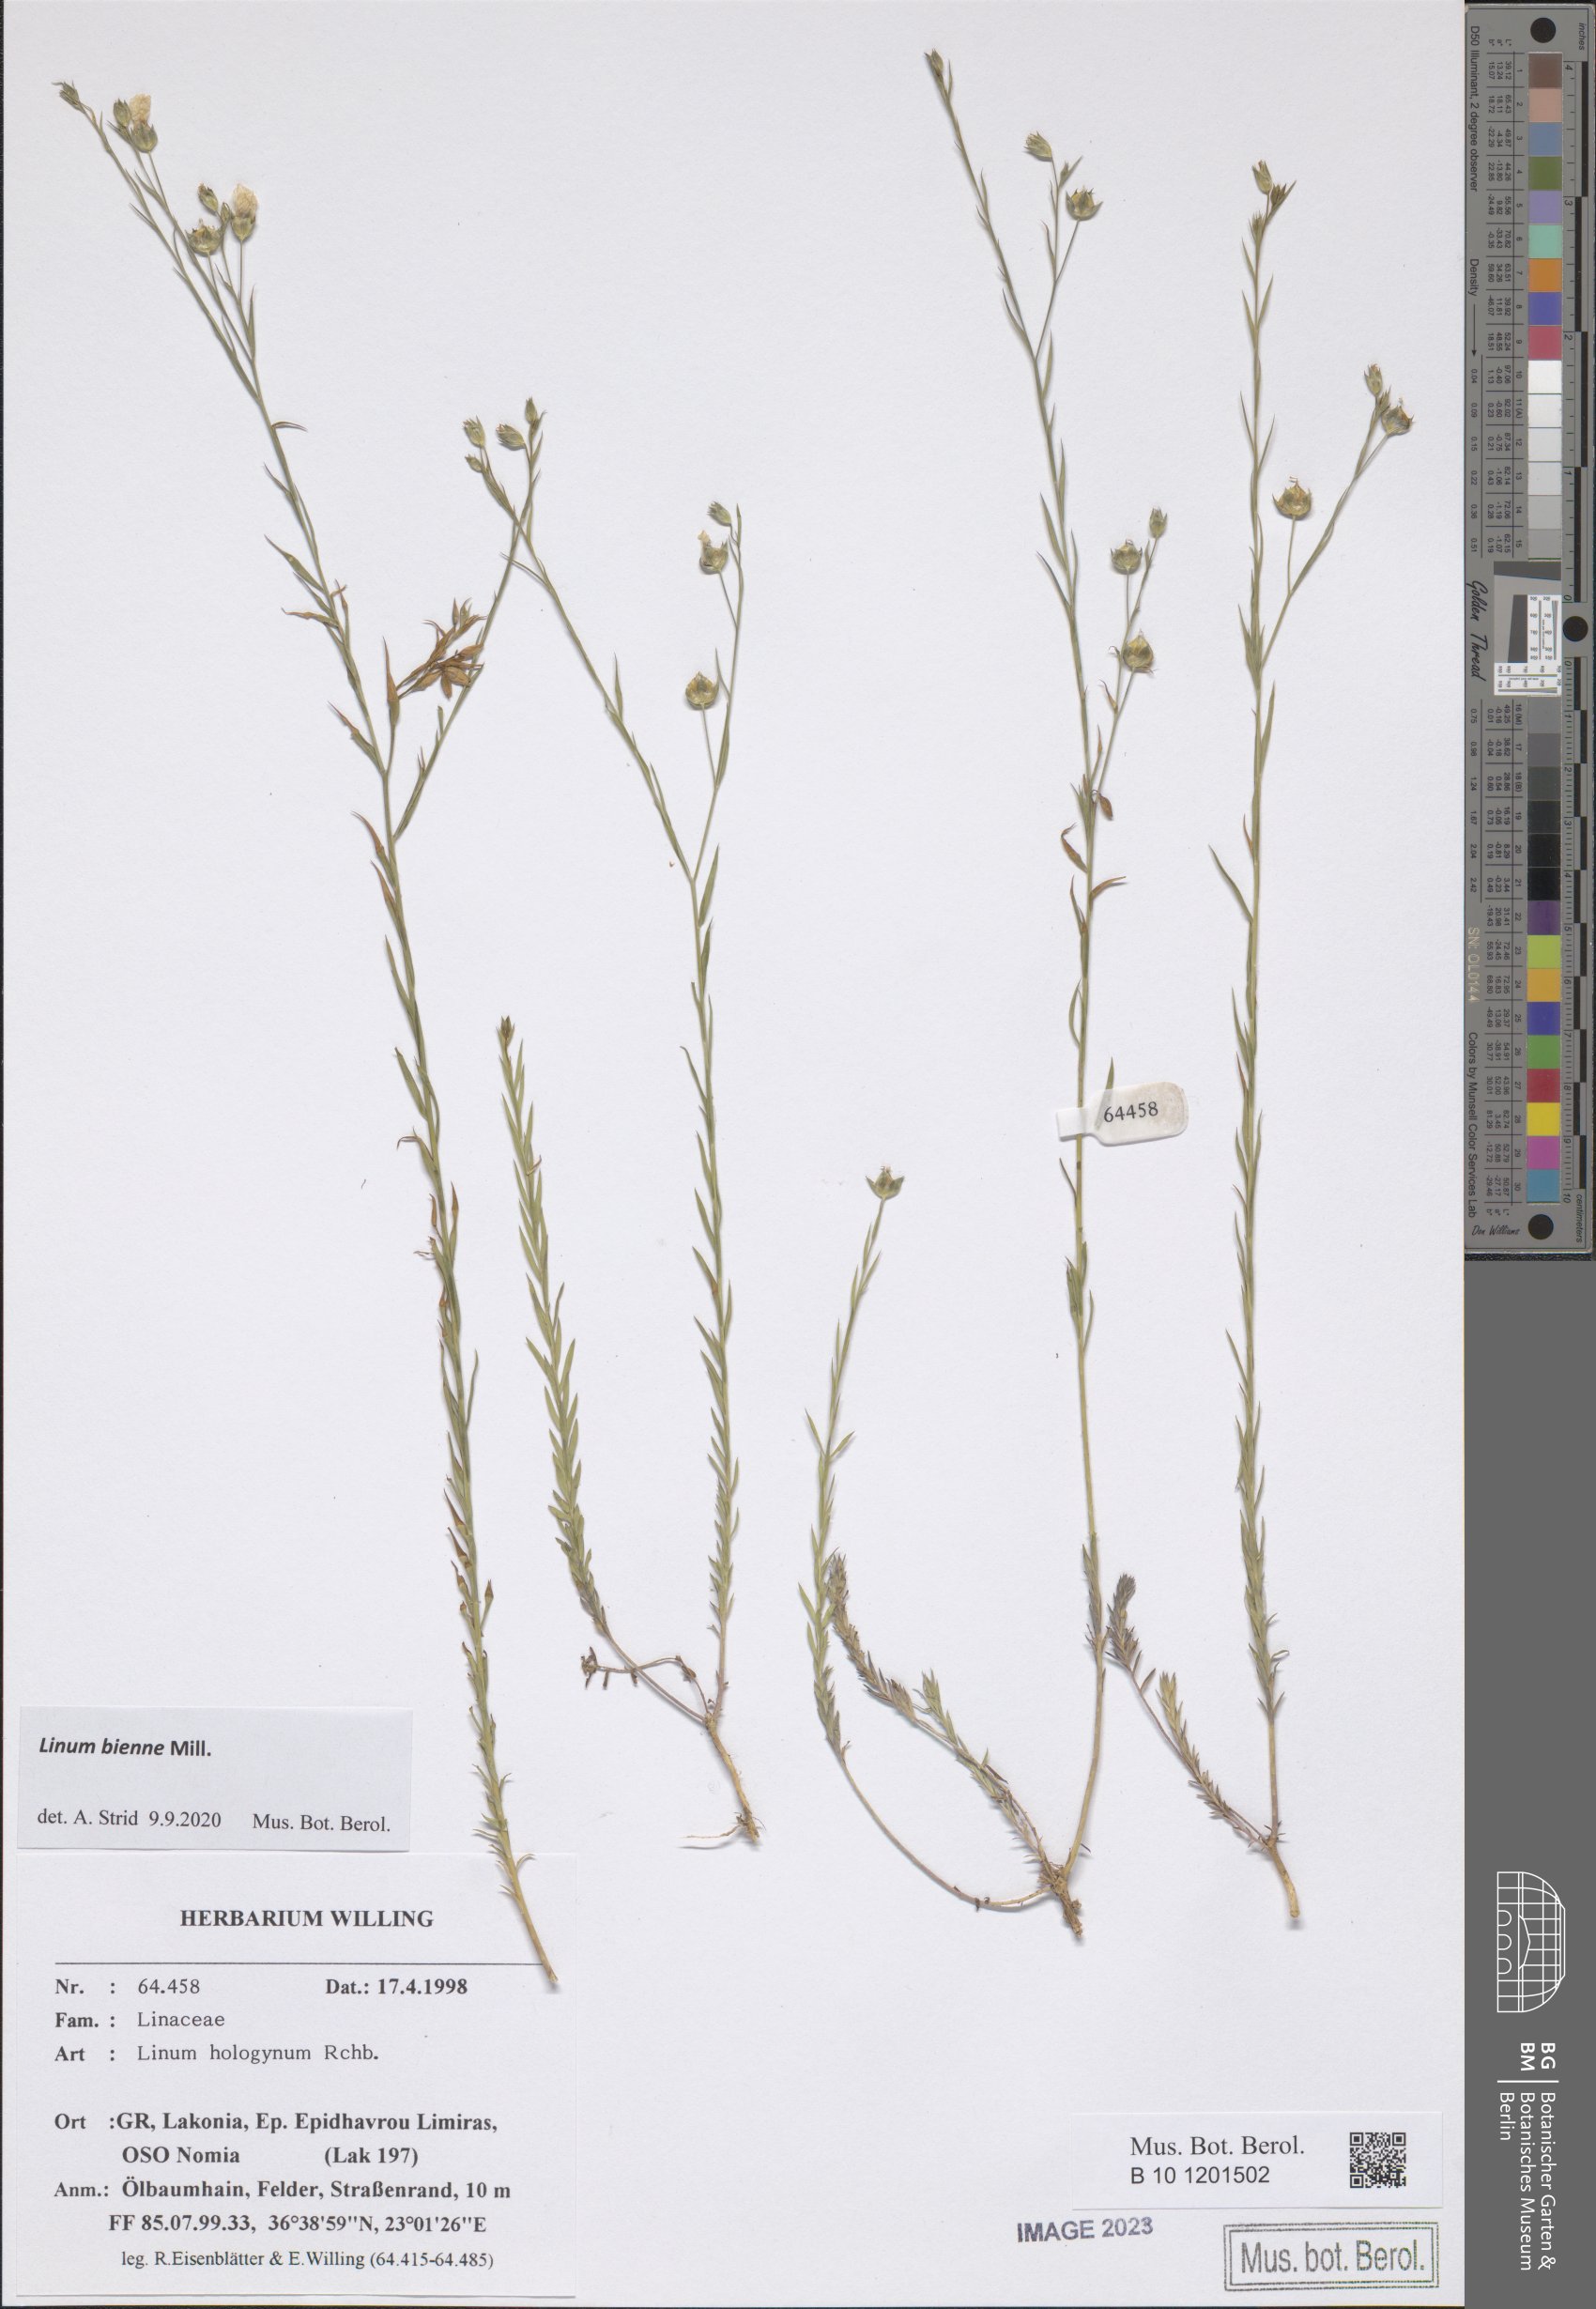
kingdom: Plantae
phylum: Tracheophyta
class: Magnoliopsida
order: Malpighiales
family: Linaceae
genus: Linum
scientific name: Linum bienne
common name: Pale flax
